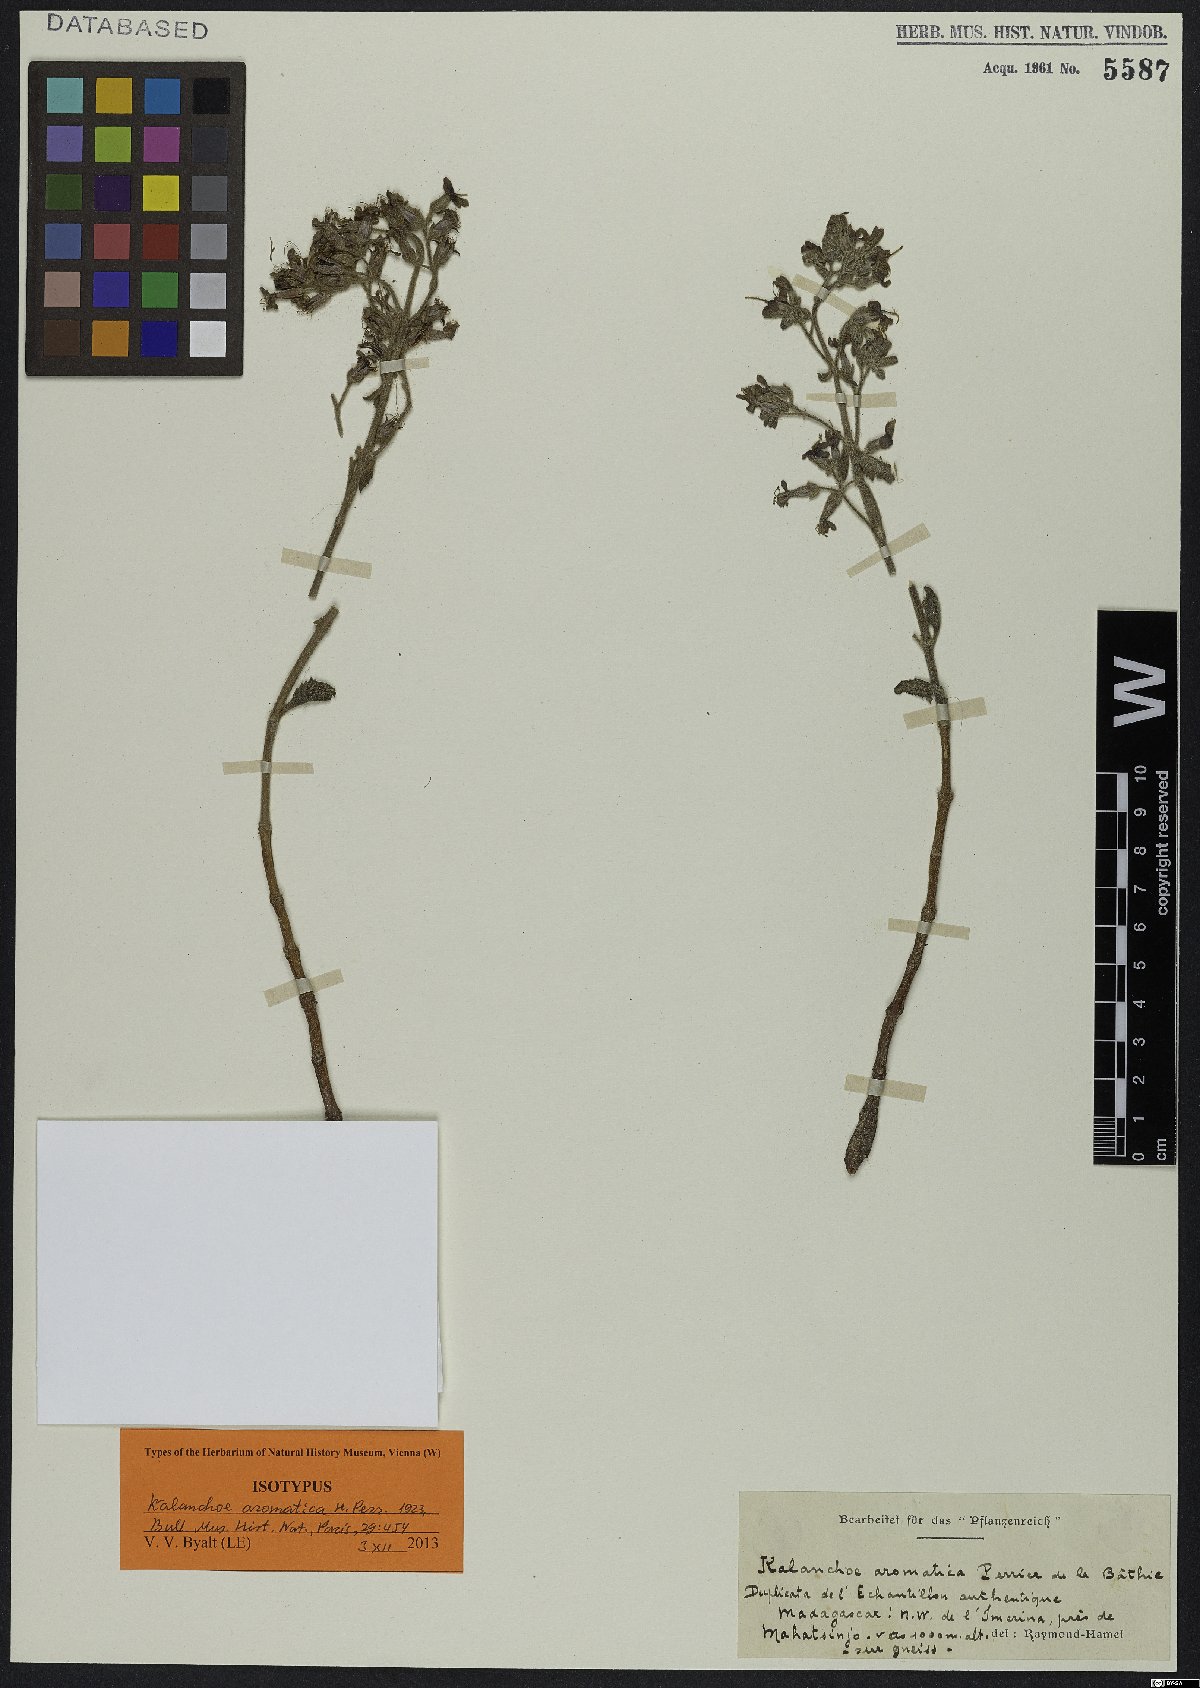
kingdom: Plantae
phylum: Tracheophyta
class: Magnoliopsida
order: Saxifragales
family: Crassulaceae
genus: Kalanchoe
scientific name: Kalanchoe aromatica
